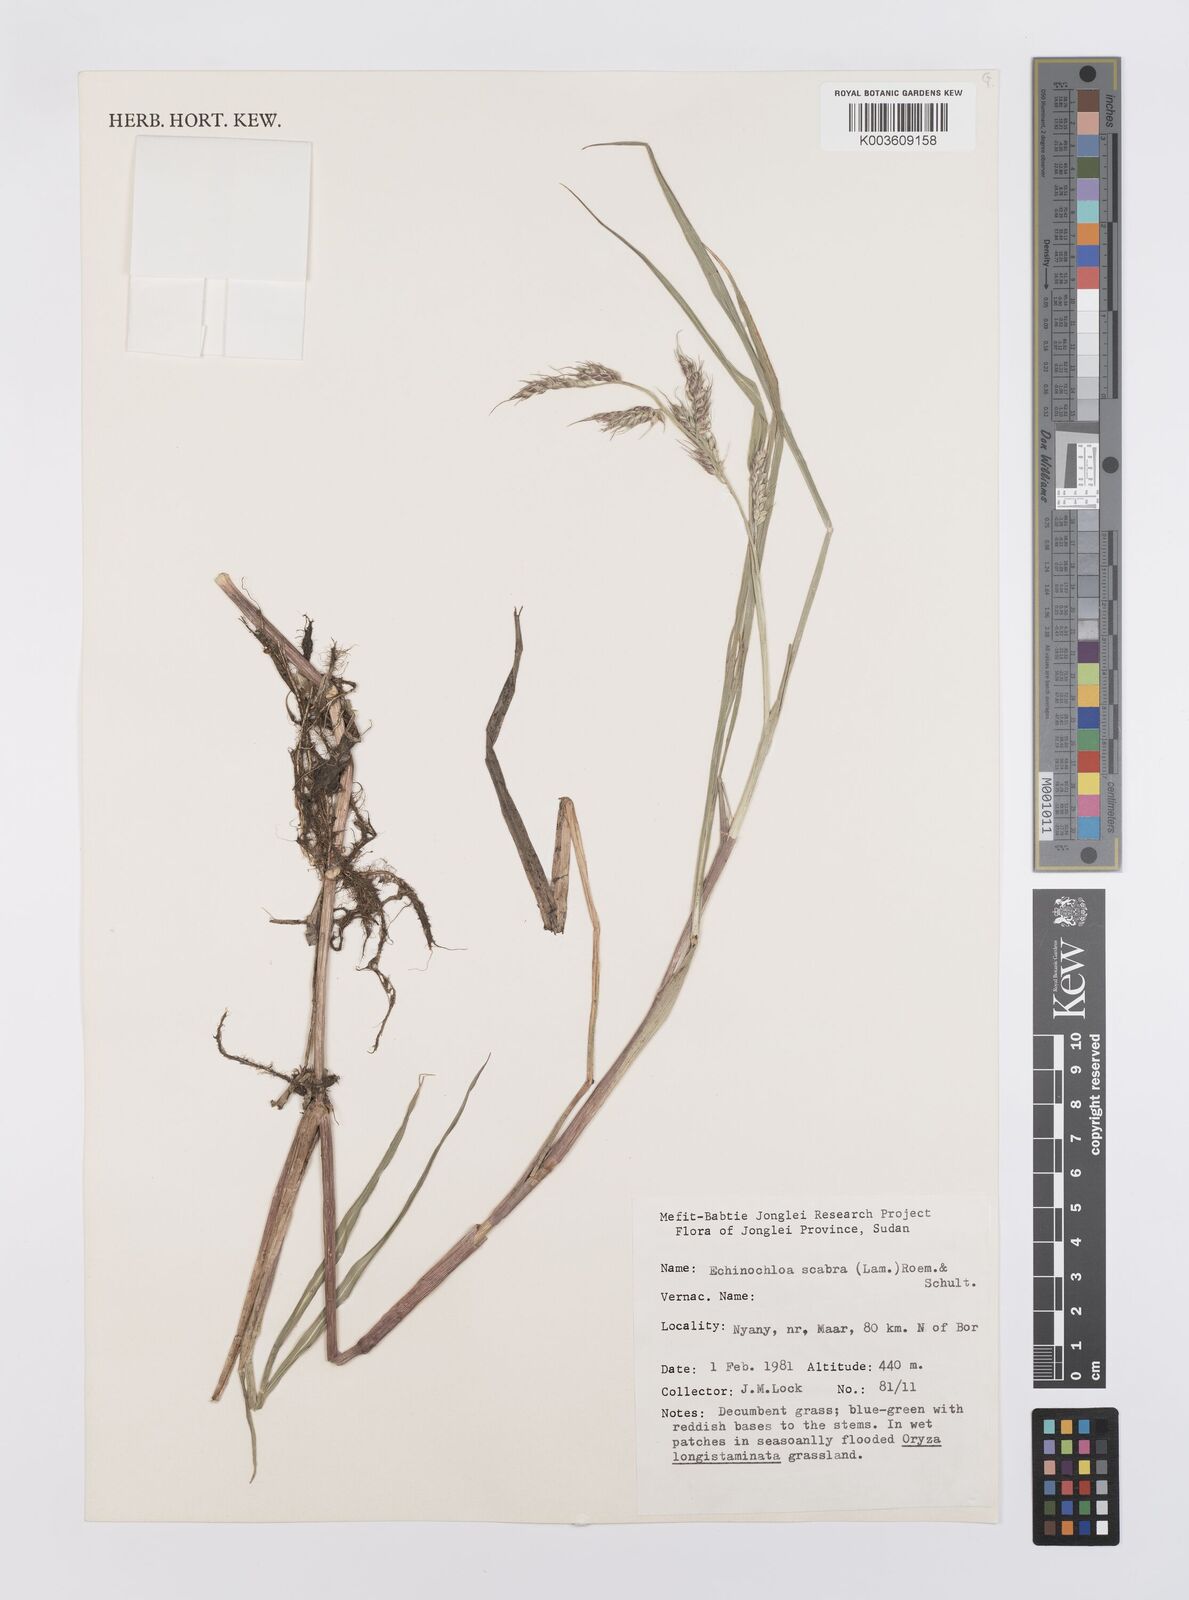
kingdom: Plantae
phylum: Tracheophyta
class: Liliopsida
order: Poales
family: Poaceae
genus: Echinochloa
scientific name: Echinochloa stagnina
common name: Burgu grass
